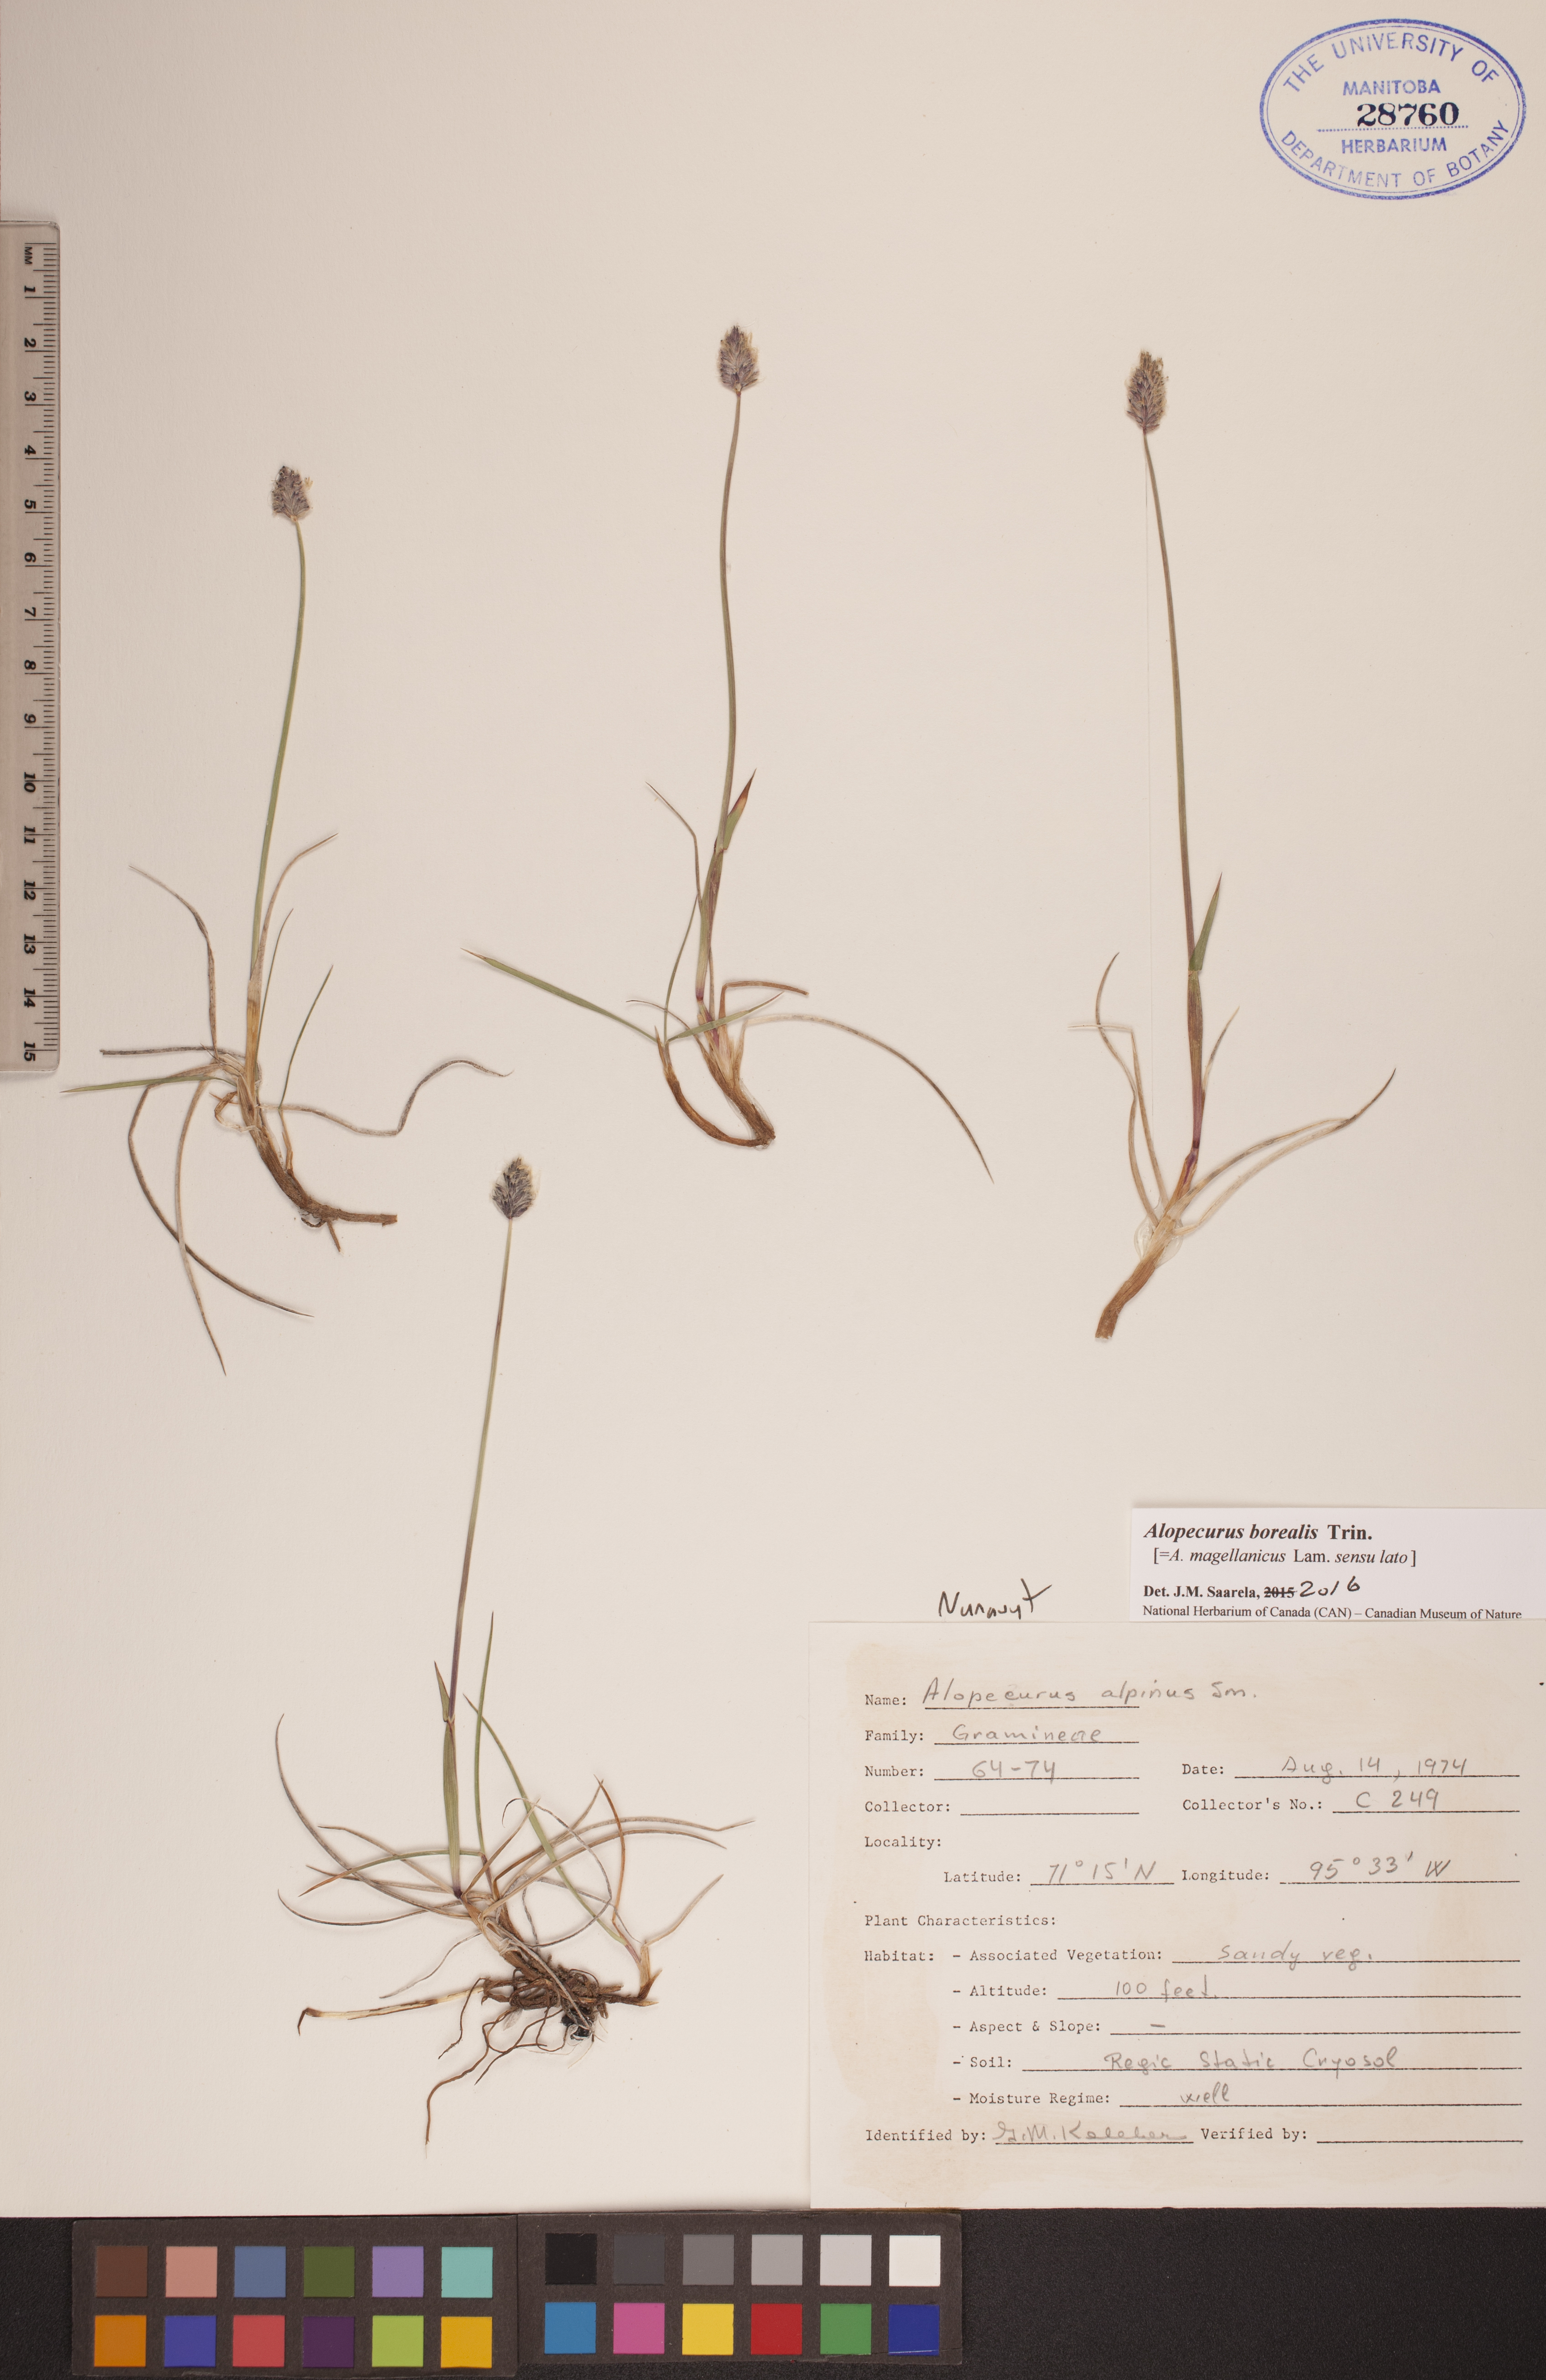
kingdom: Plantae
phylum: Tracheophyta
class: Liliopsida
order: Poales
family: Poaceae
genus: Alopecurus
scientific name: Alopecurus magellanicus
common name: Alpine foxtail
